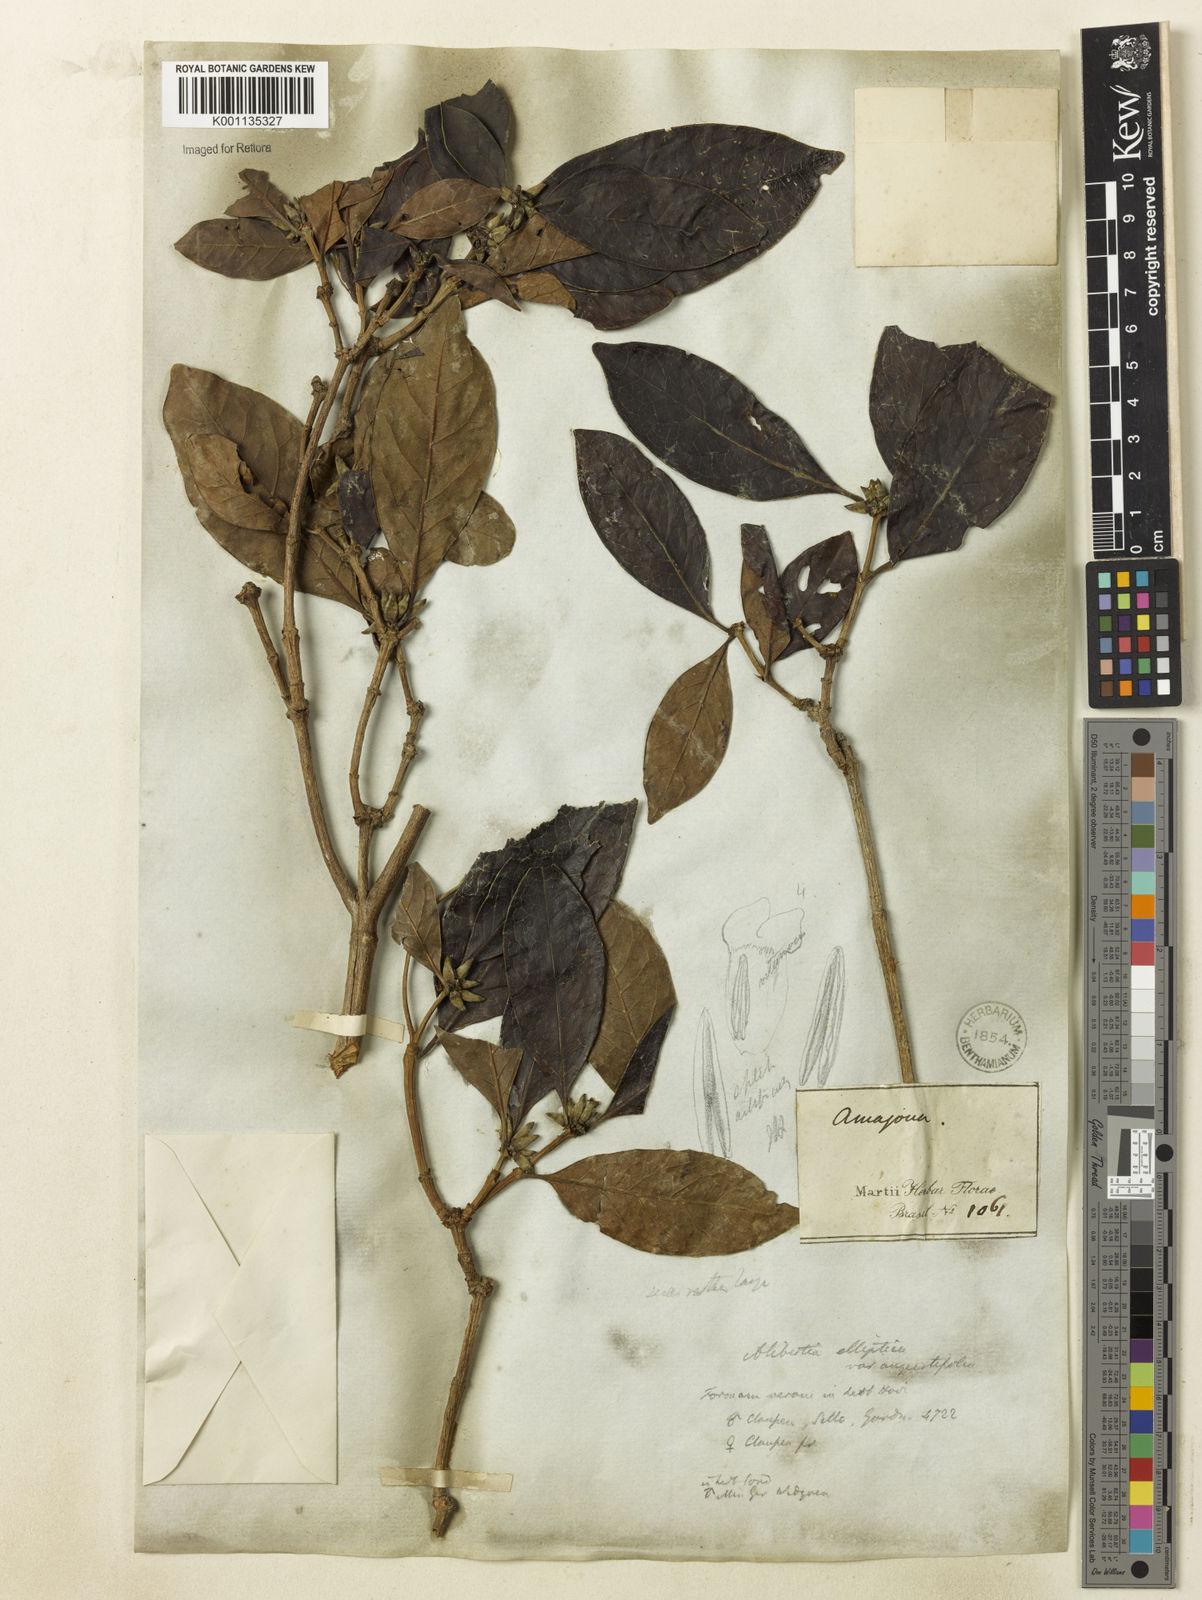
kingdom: Plantae
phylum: Tracheophyta
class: Magnoliopsida
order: Gentianales
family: Rubiaceae
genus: Cordiera
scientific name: Cordiera elliptica
